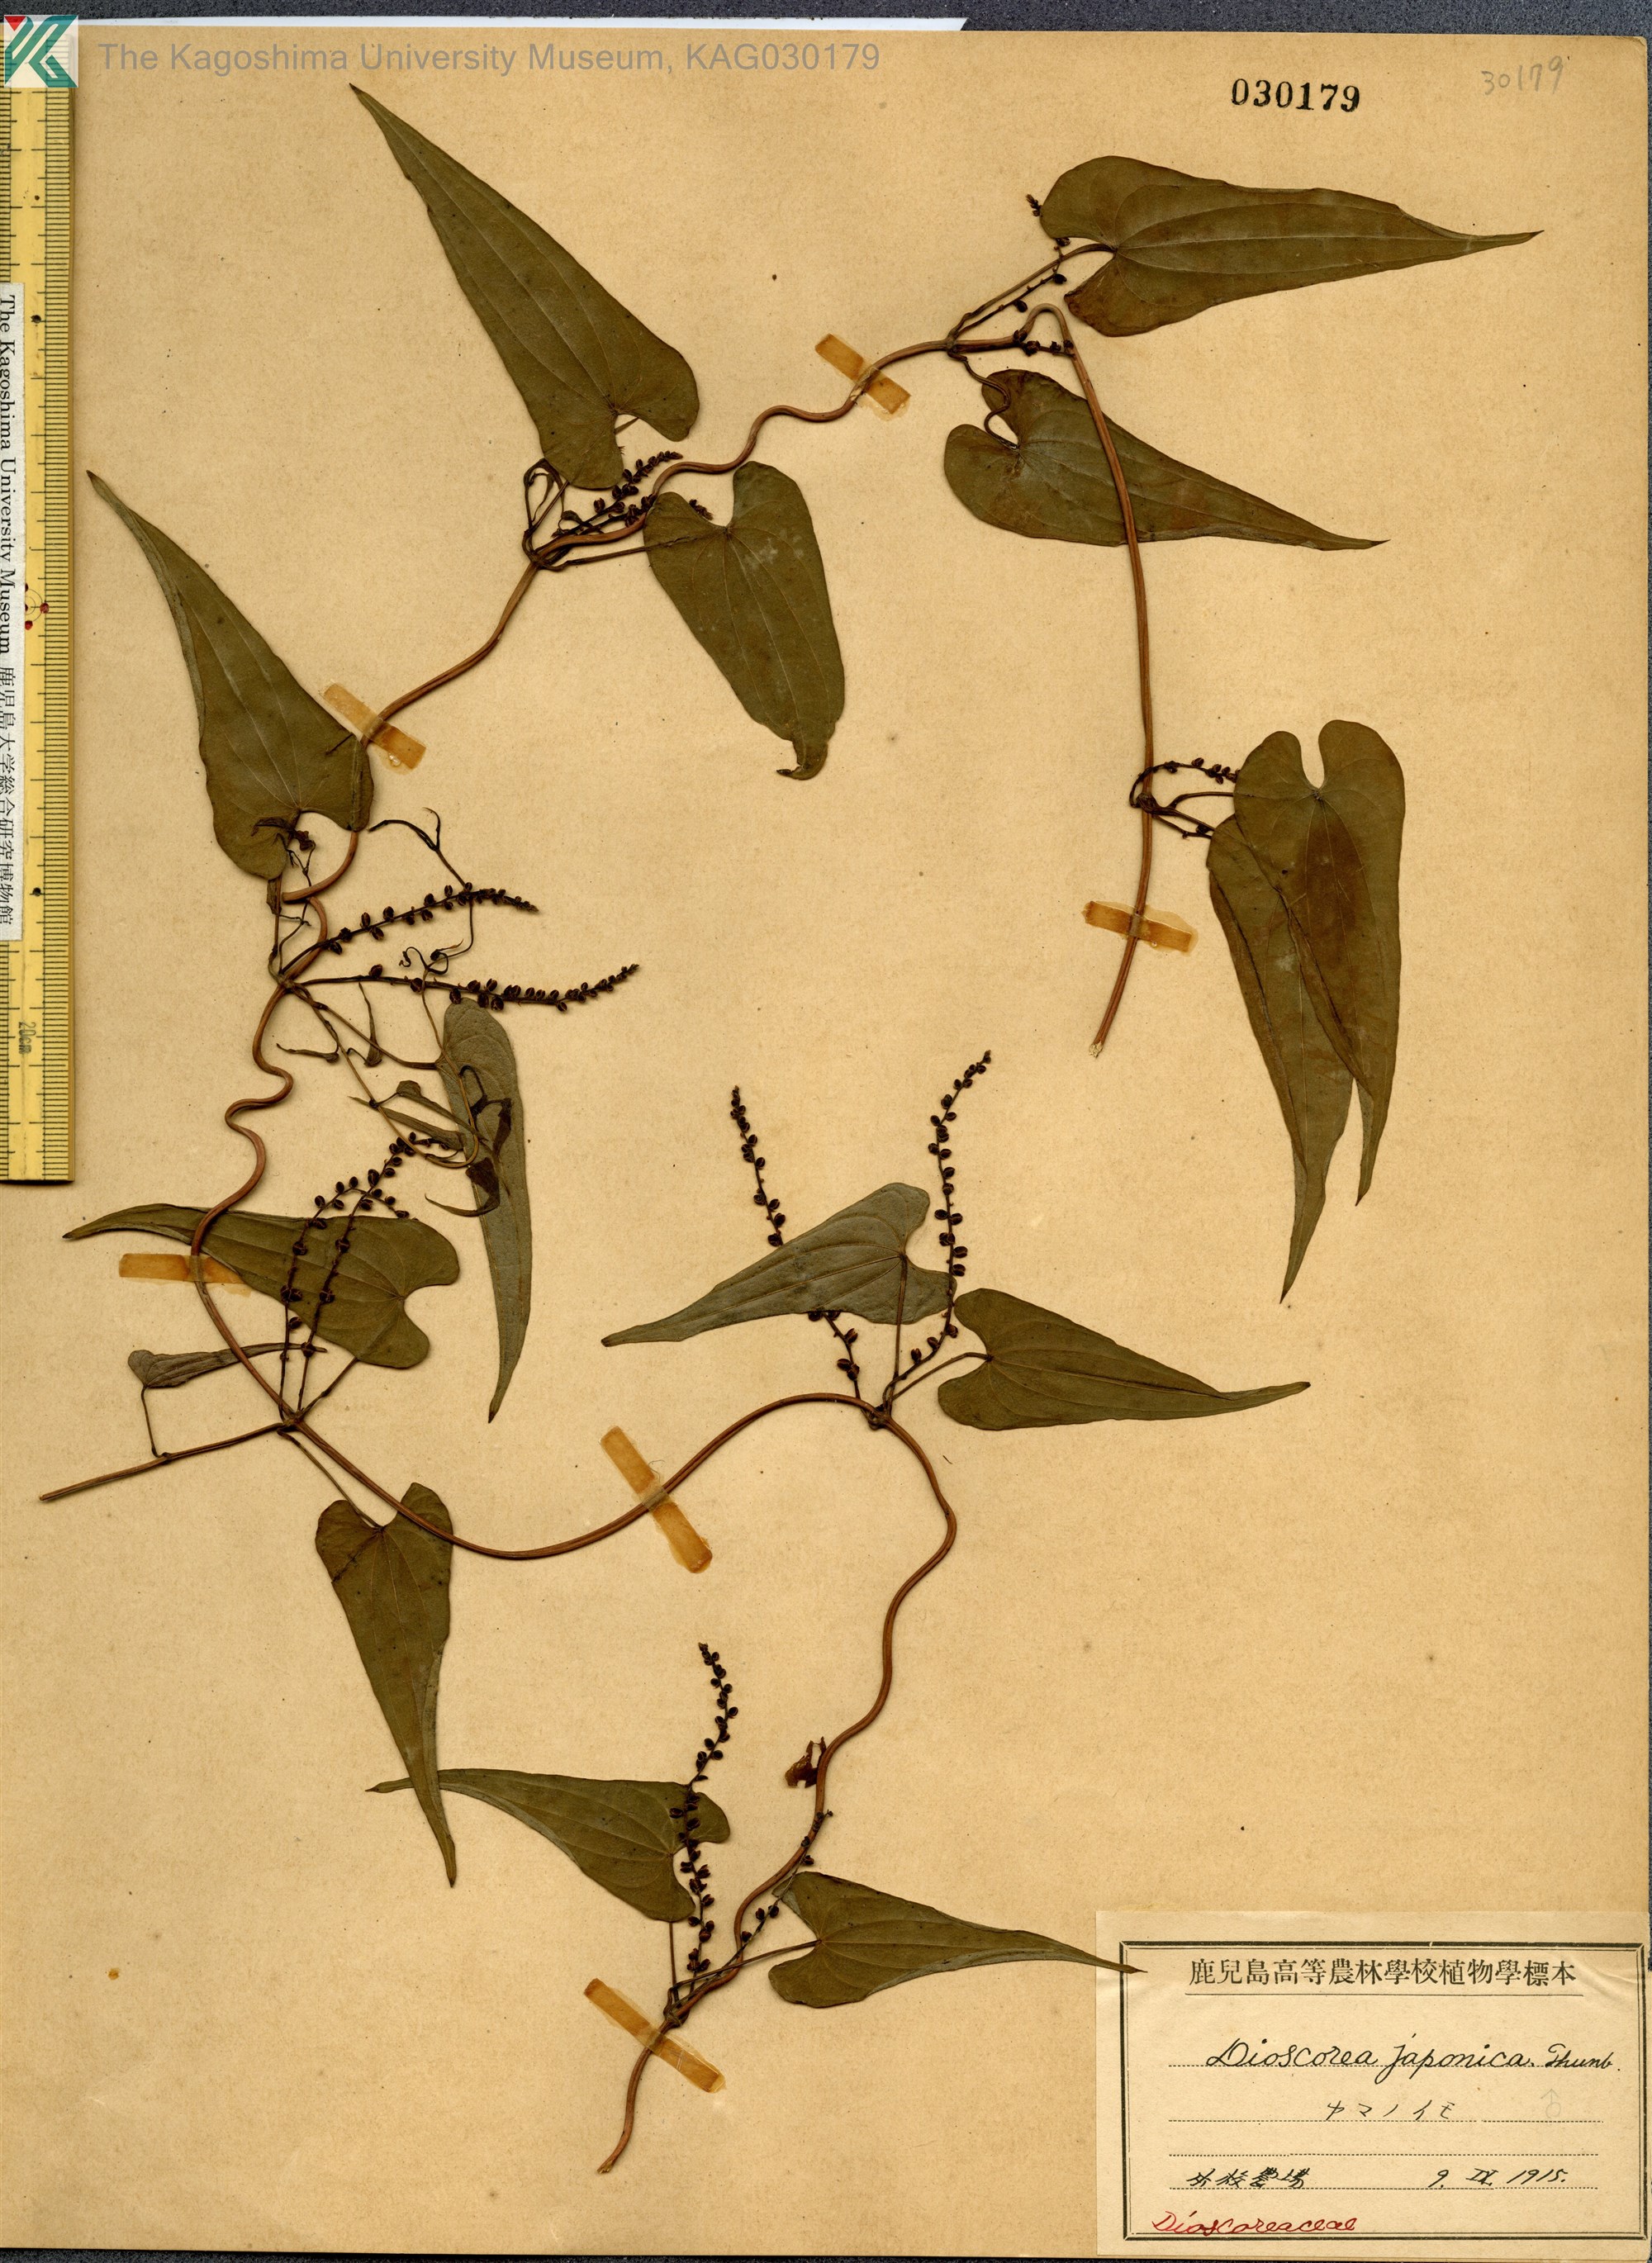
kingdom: Plantae
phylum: Tracheophyta
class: Liliopsida
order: Dioscoreales
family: Dioscoreaceae
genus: Dioscorea
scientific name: Dioscorea japonica
